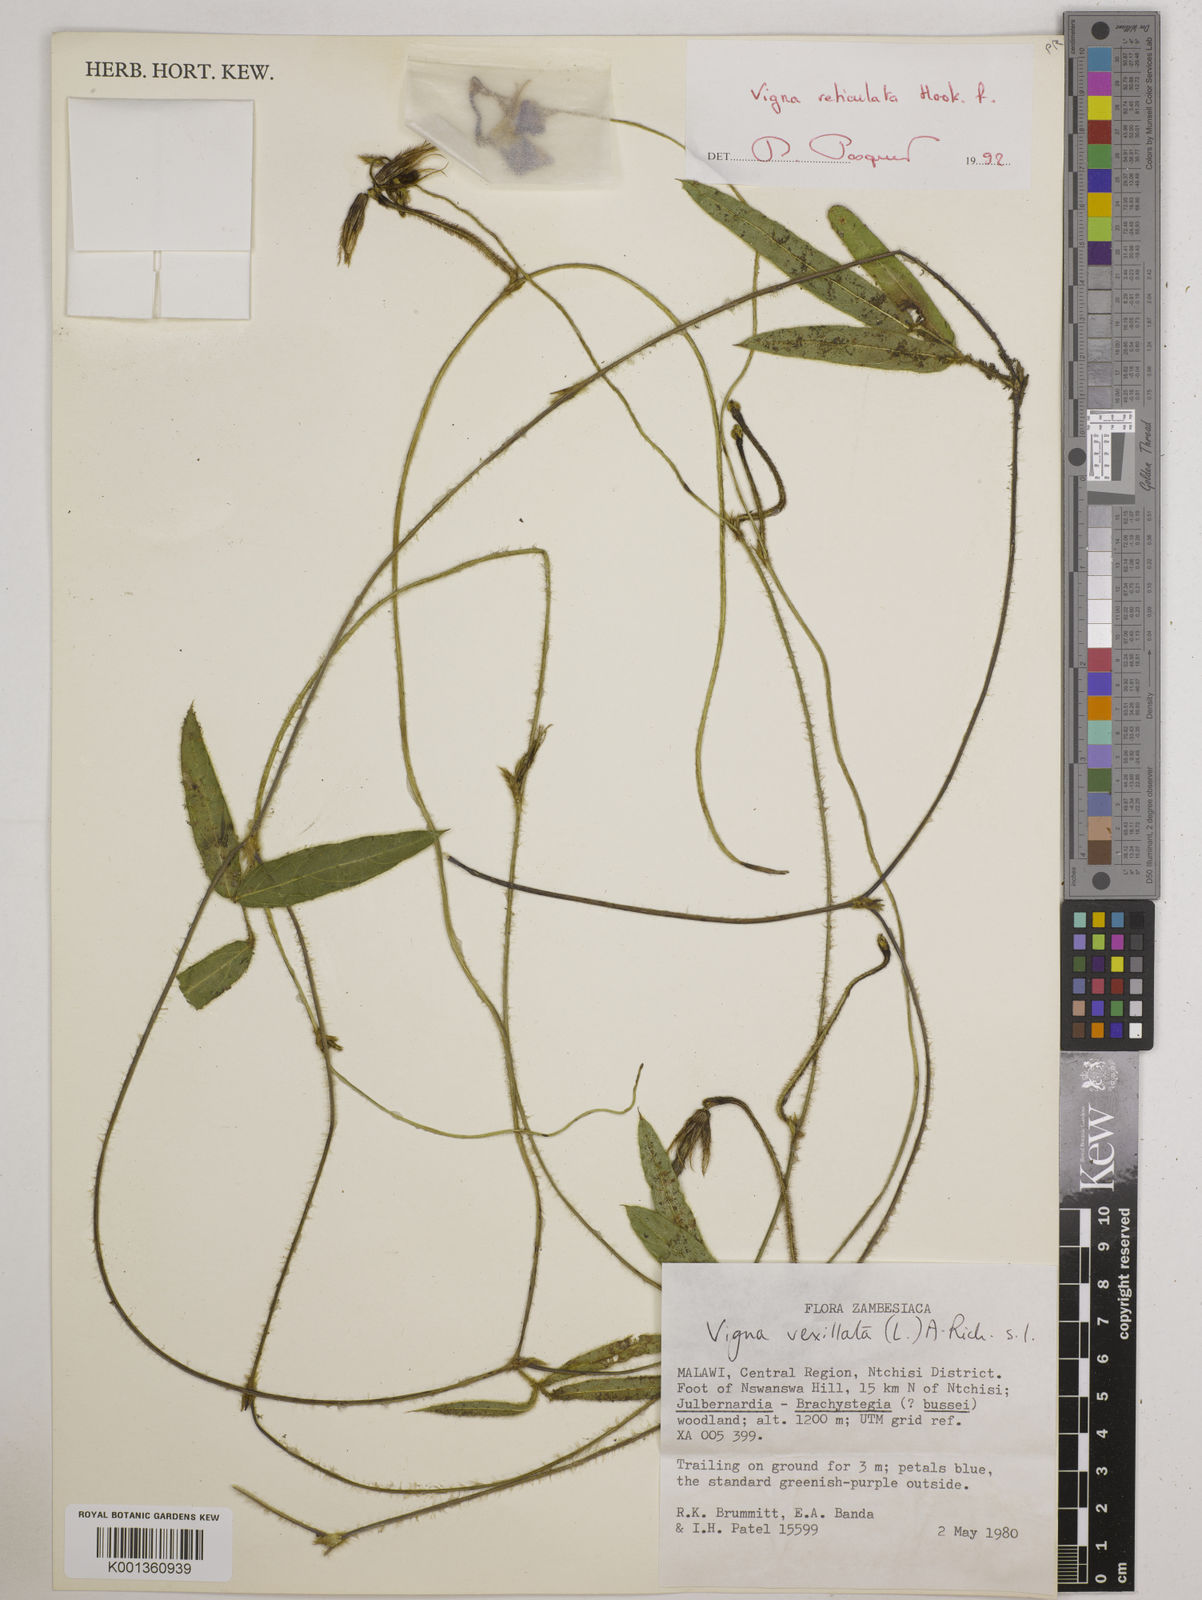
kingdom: Plantae
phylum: Tracheophyta
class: Magnoliopsida
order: Fabales
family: Fabaceae
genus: Vigna
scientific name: Vigna reticulata
